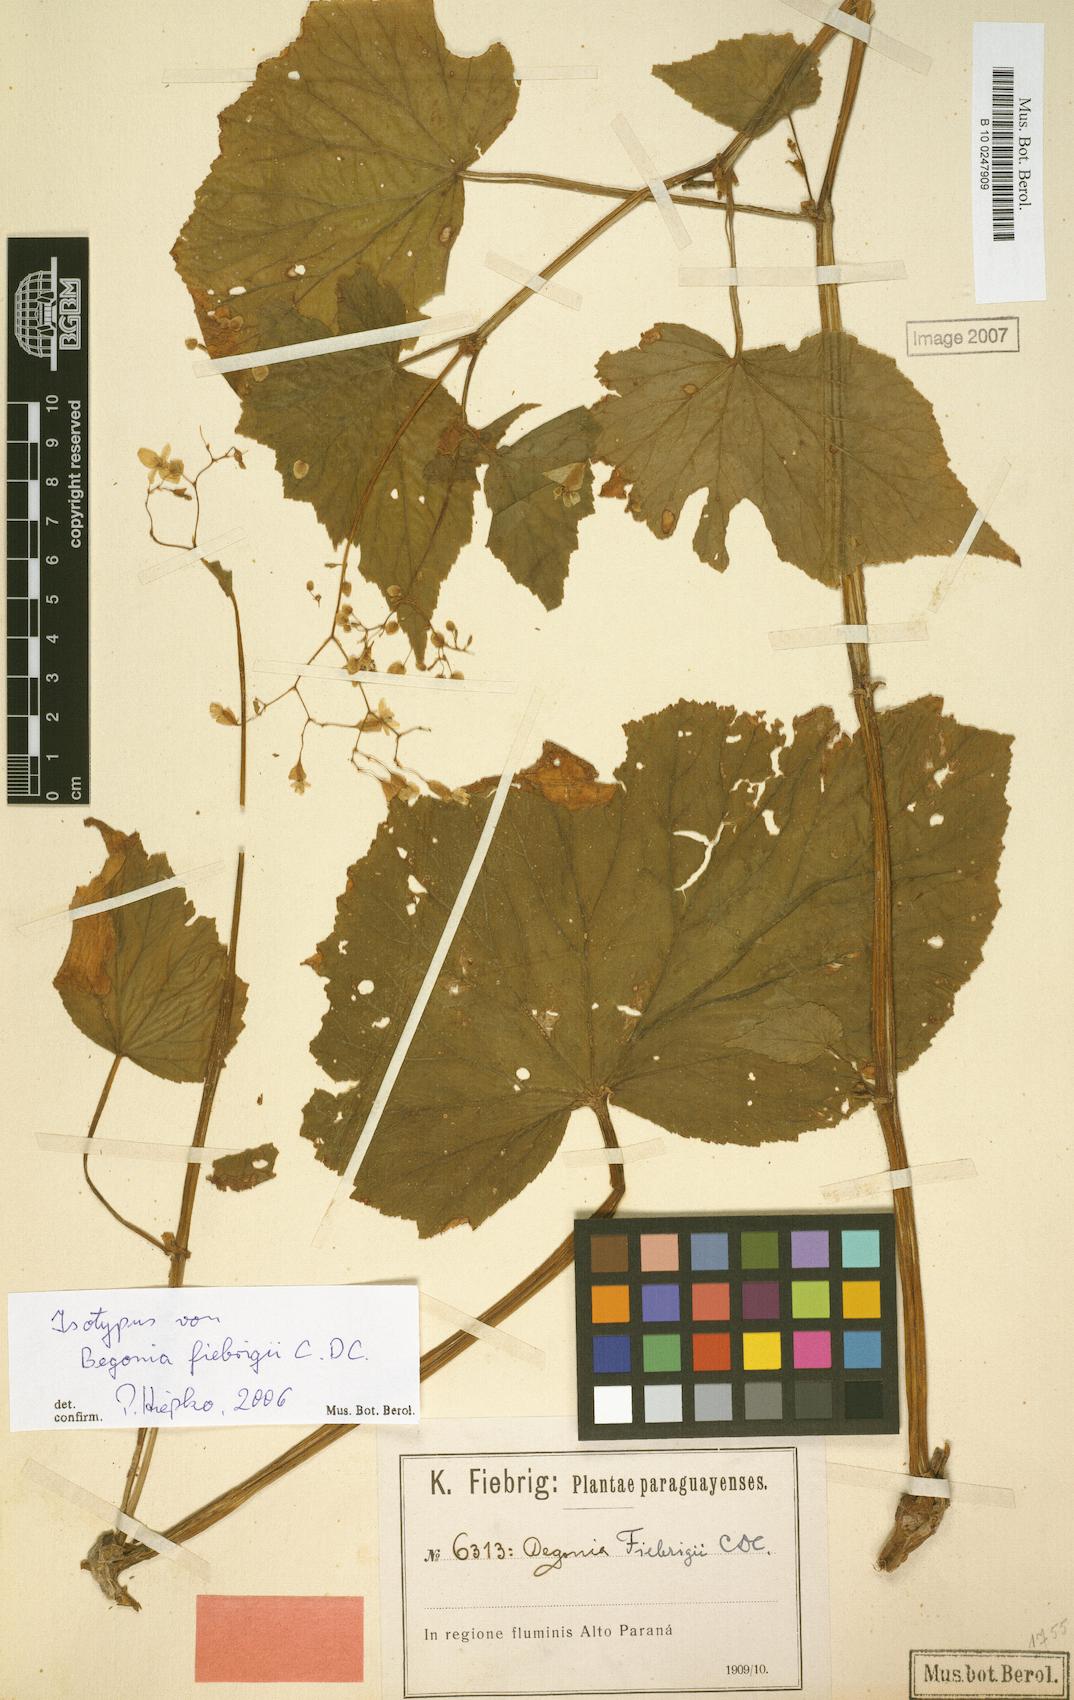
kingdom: Plantae
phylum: Tracheophyta
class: Magnoliopsida
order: Cucurbitales
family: Begoniaceae
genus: Begonia
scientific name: Begonia fiebrigii
